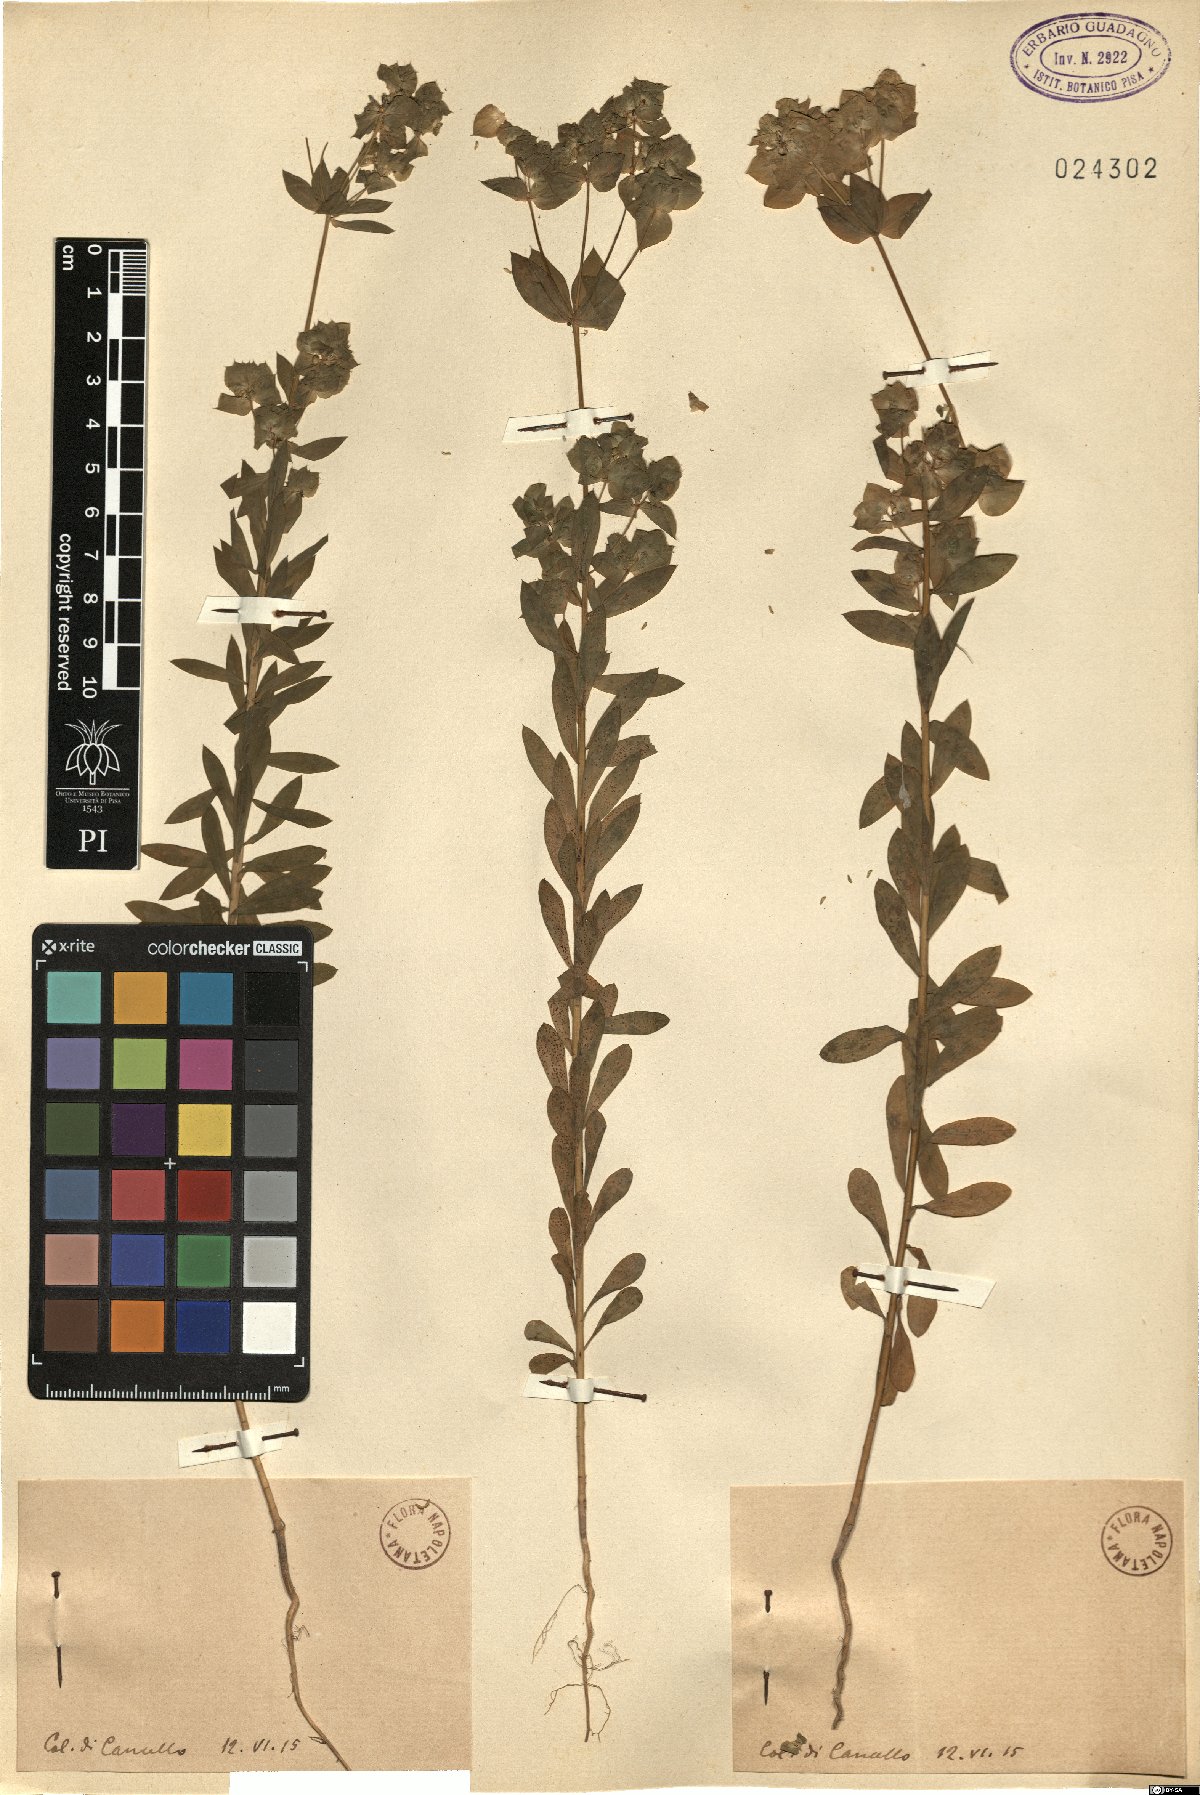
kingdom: Plantae
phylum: Tracheophyta
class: Magnoliopsida
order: Malpighiales
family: Euphorbiaceae
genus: Euphorbia
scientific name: Euphorbia
